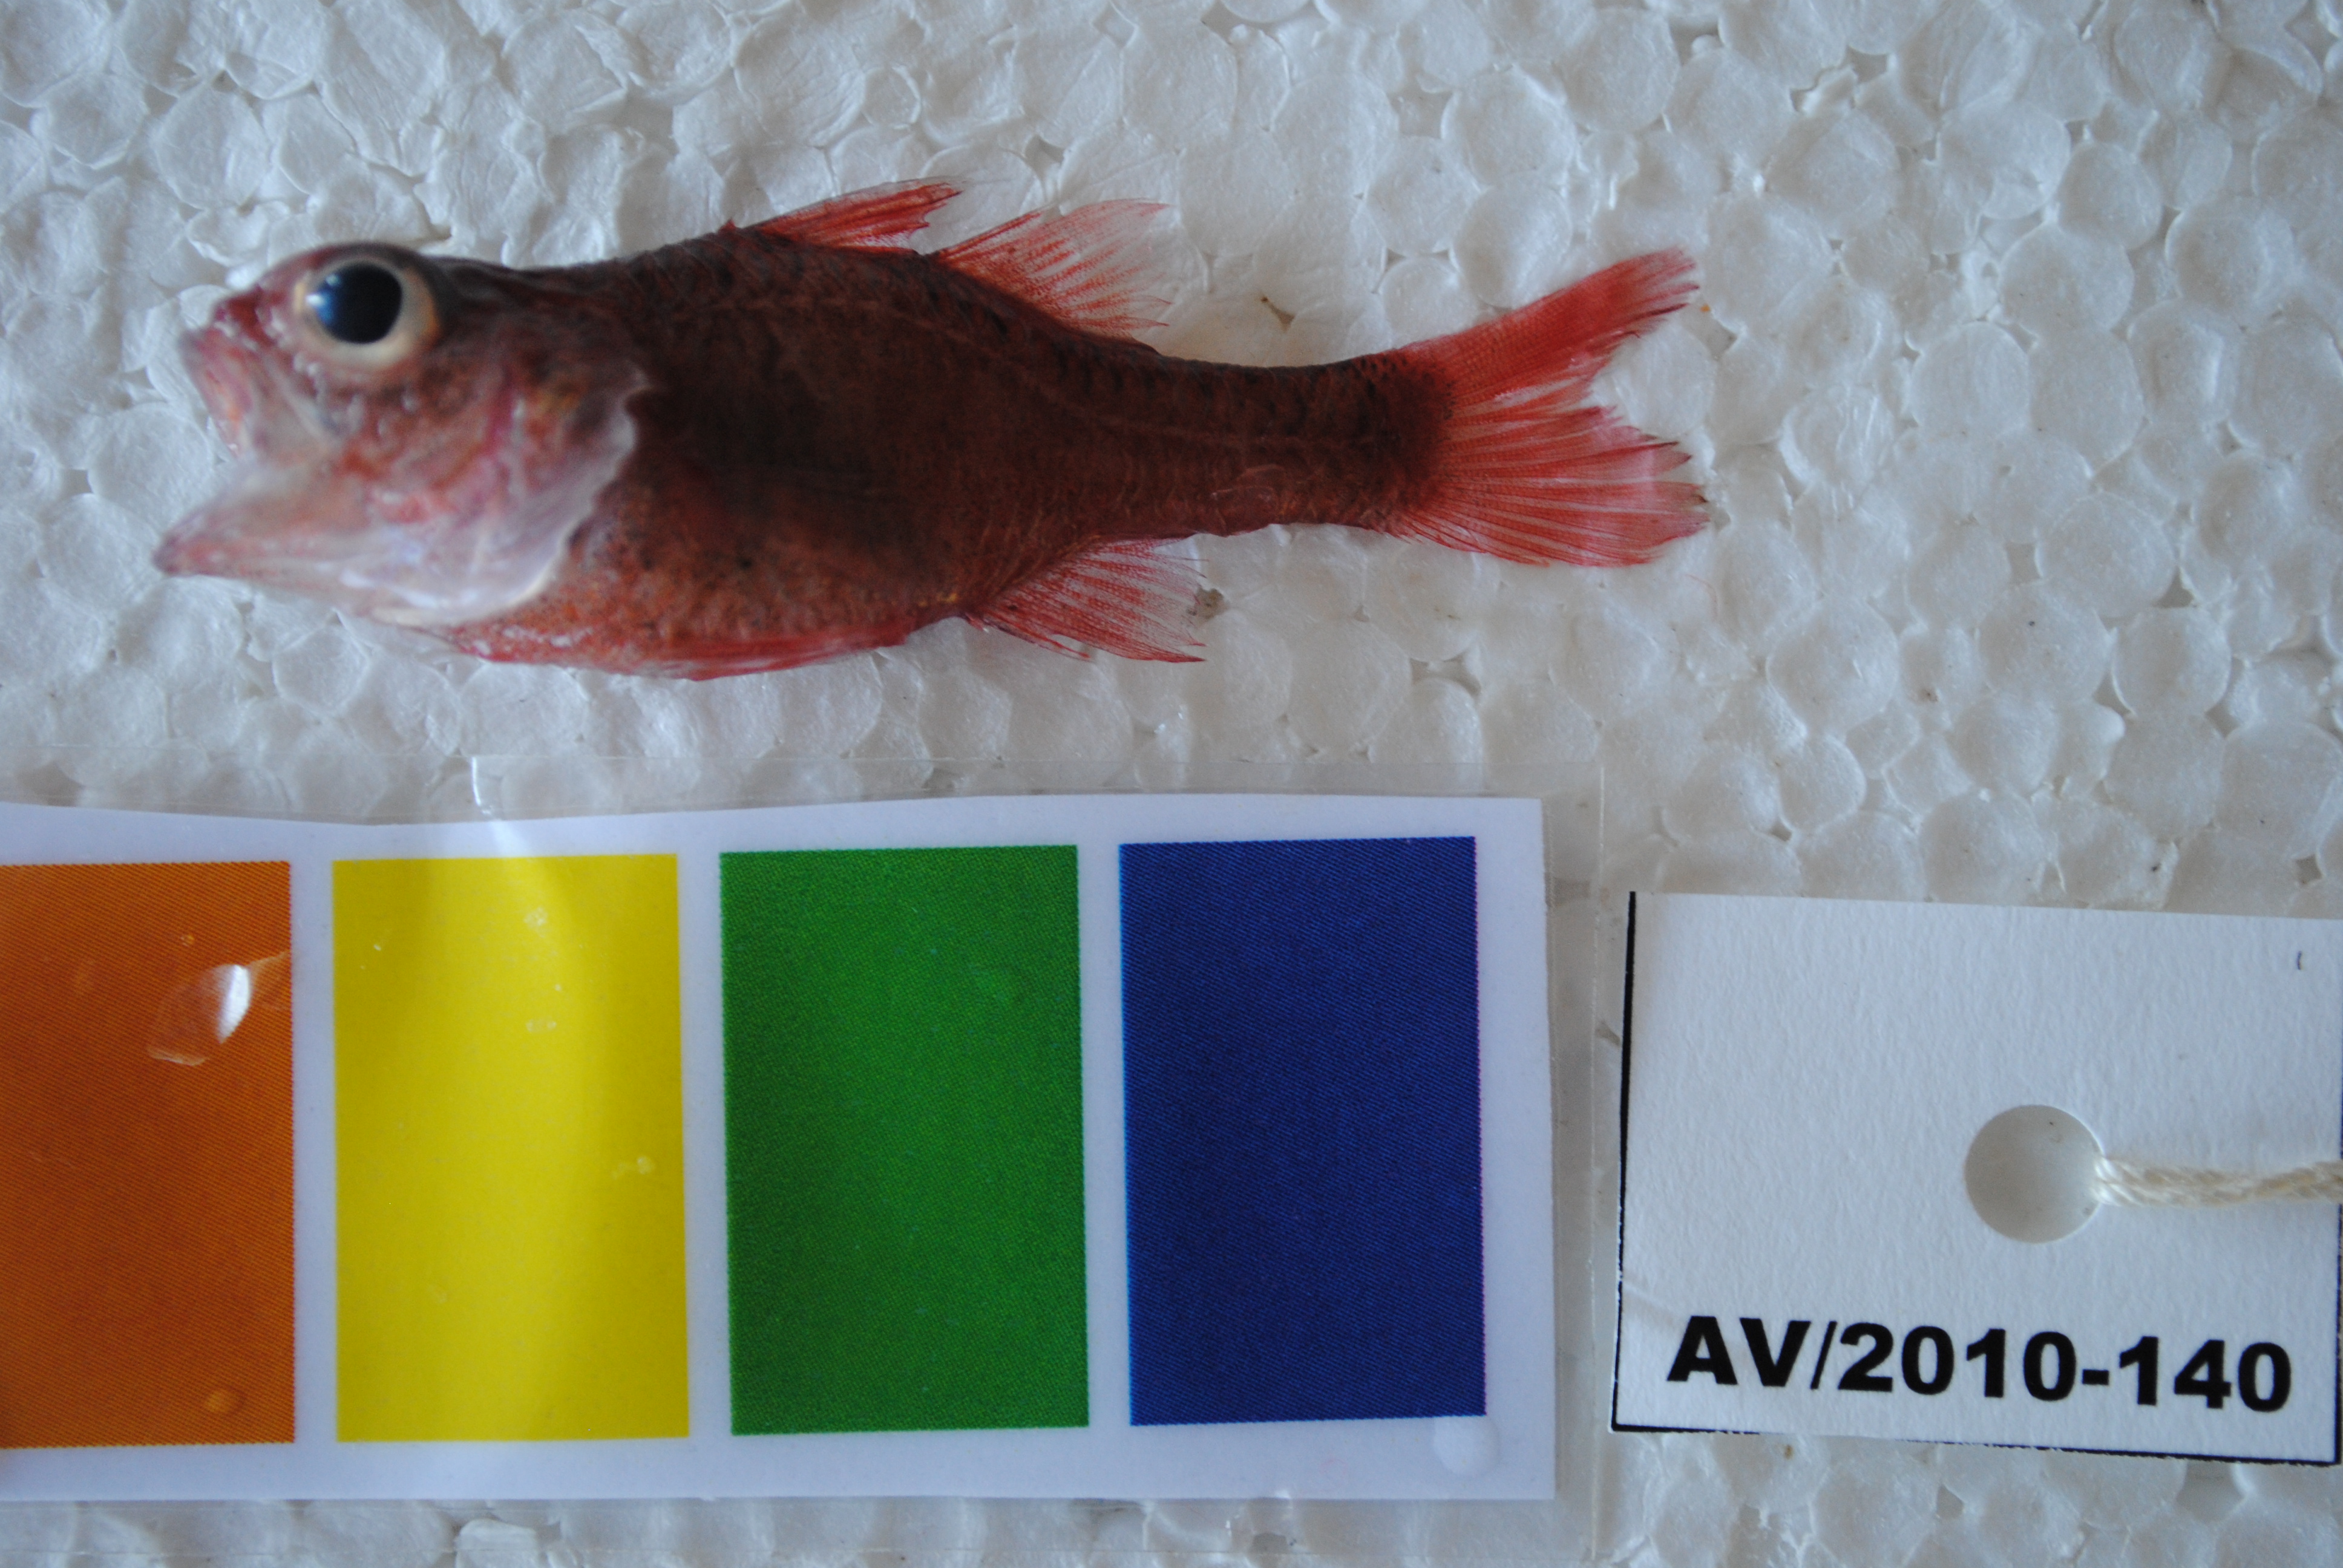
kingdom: Animalia
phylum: Chordata
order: Perciformes
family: Apogonidae
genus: Apogon
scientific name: Apogon campbelli
